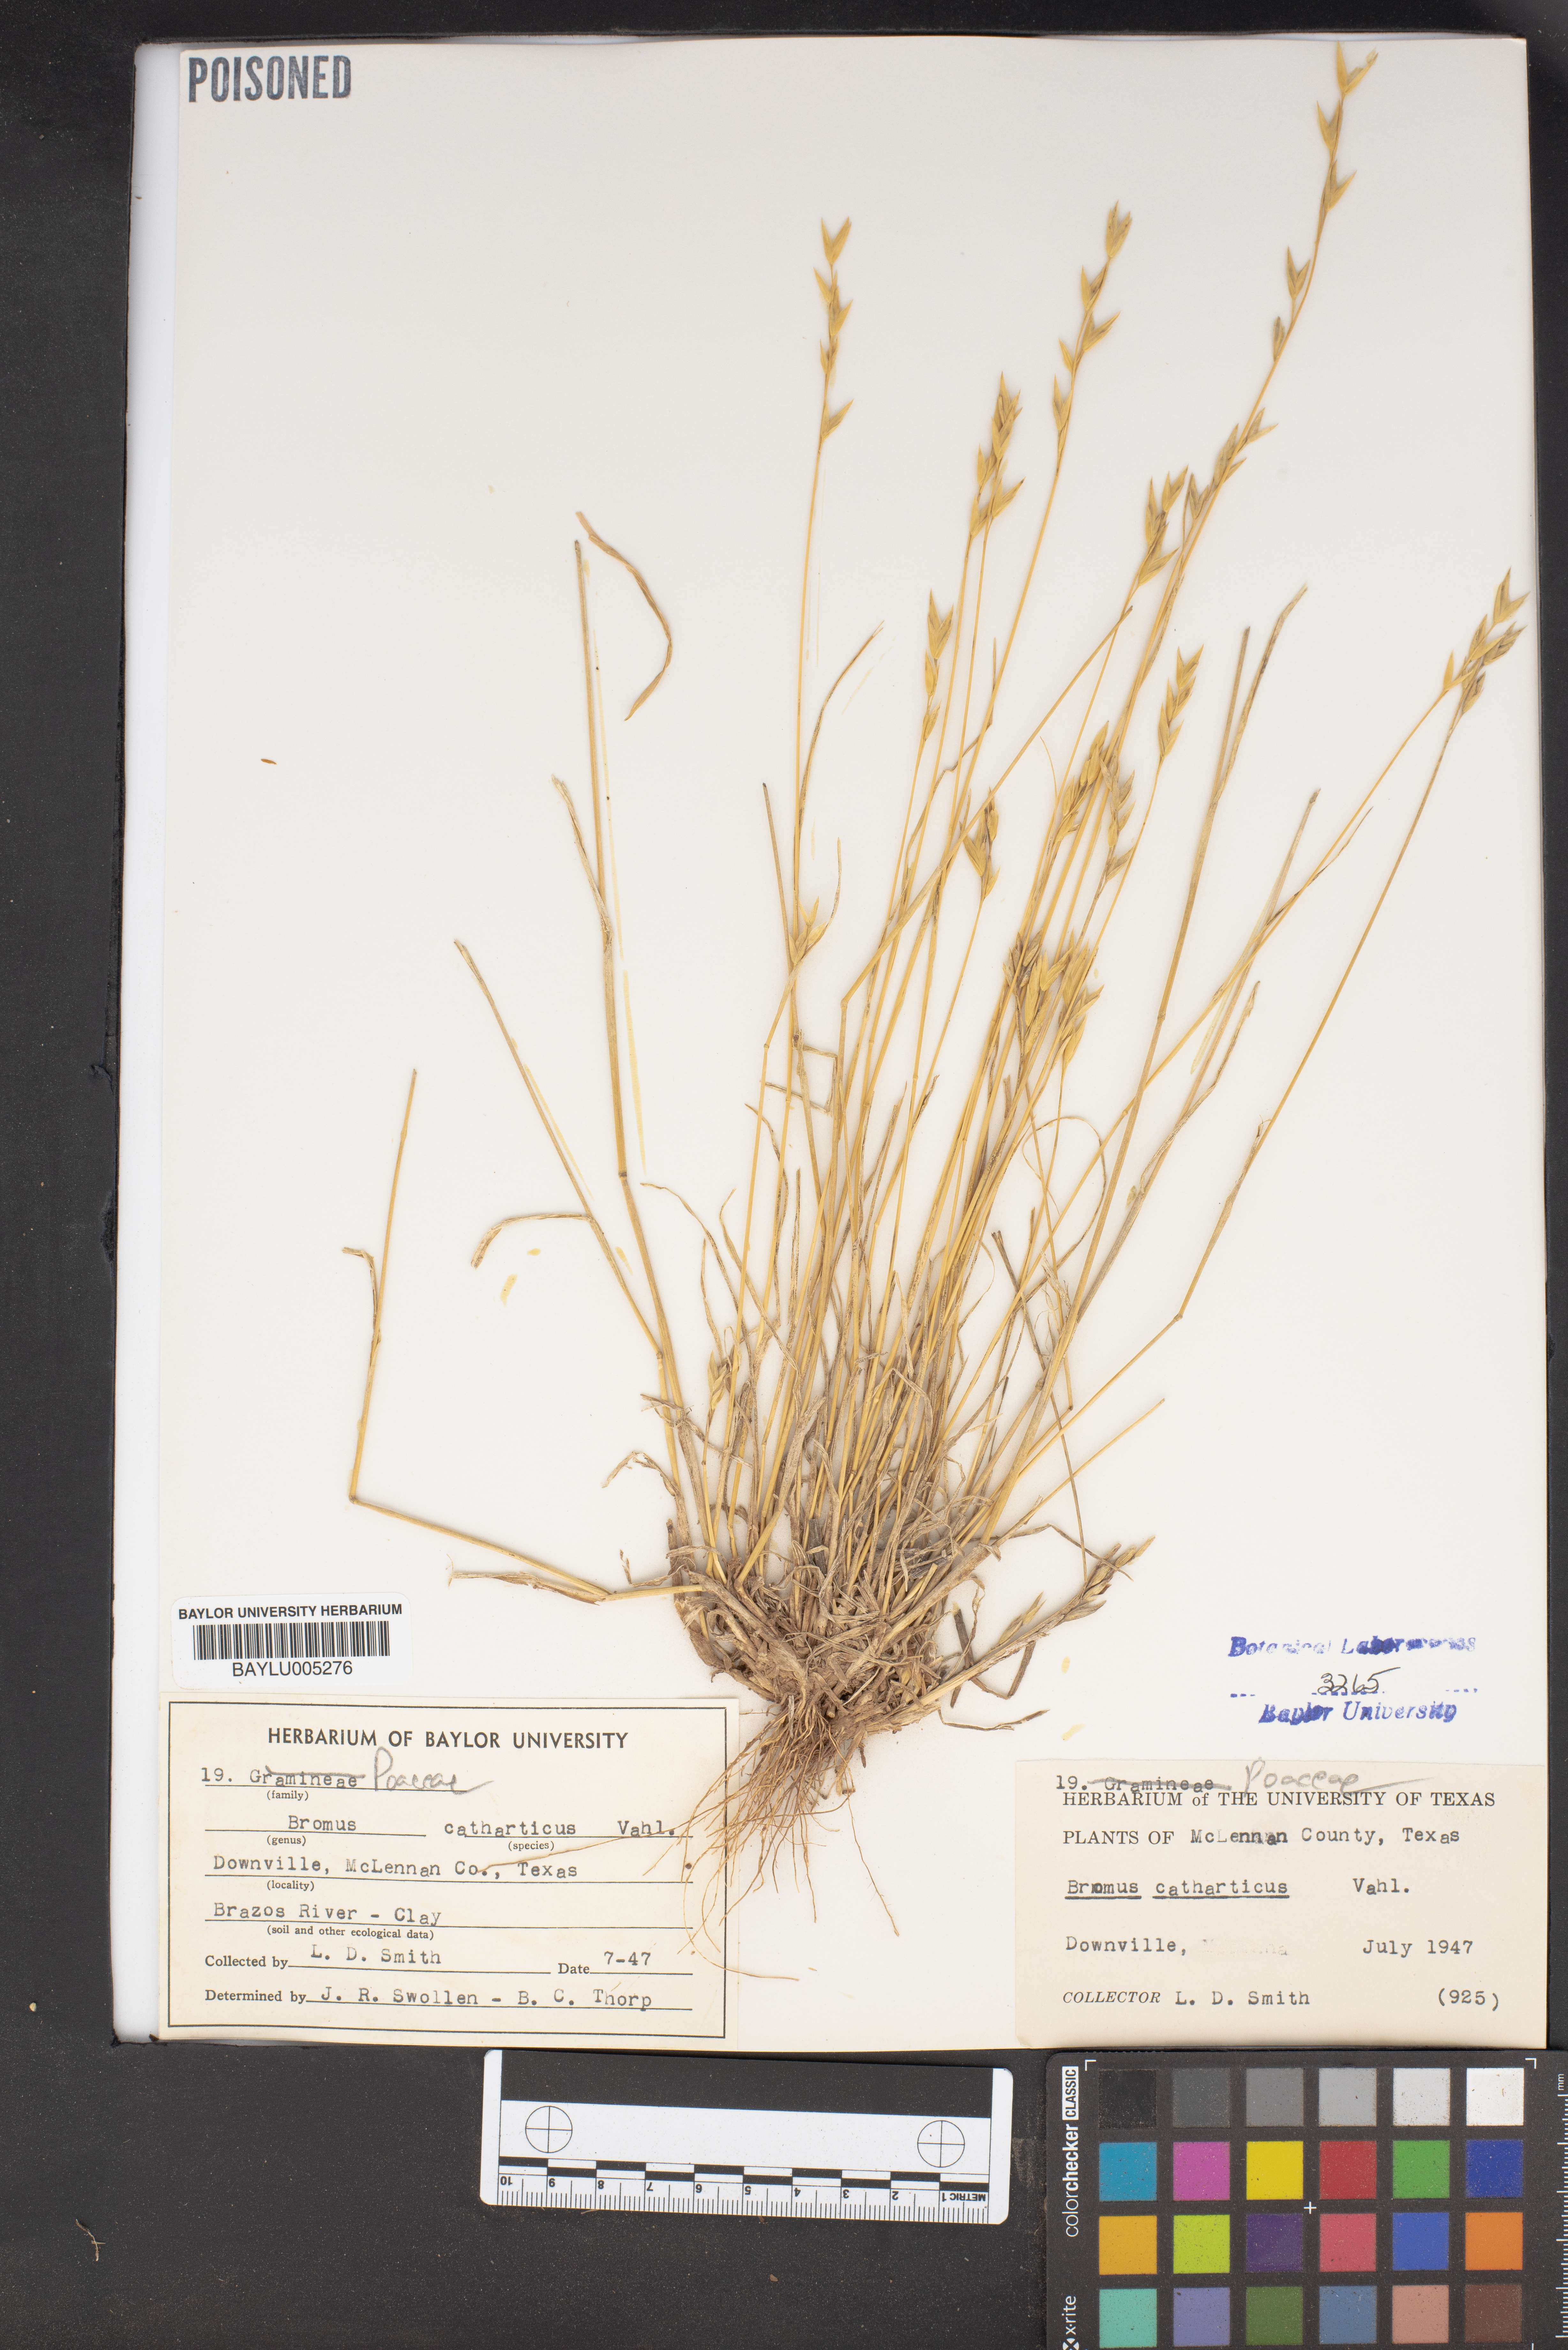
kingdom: Plantae
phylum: Tracheophyta
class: Liliopsida
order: Poales
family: Poaceae
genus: Bromus
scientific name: Bromus catharticus
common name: Rescuegrass
